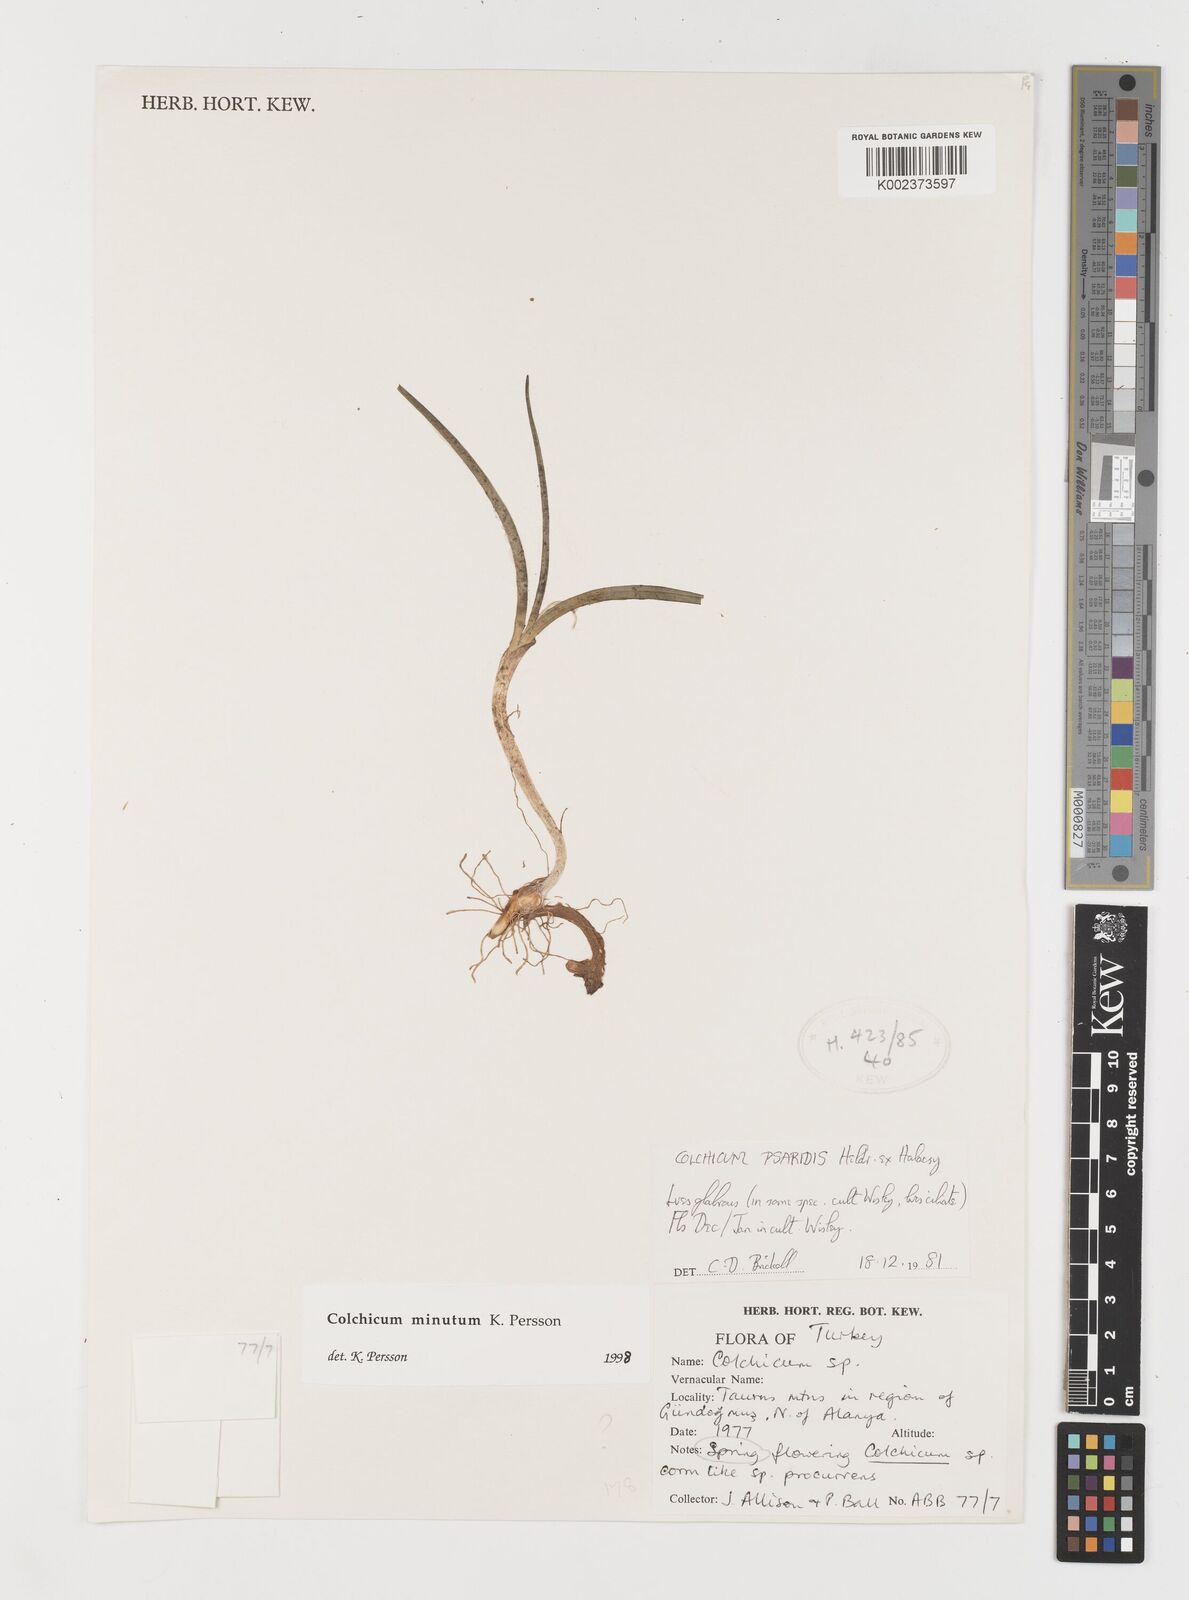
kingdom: Plantae
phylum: Tracheophyta
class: Liliopsida
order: Liliales
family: Colchicaceae
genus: Colchicum
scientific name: Colchicum serpentinum
